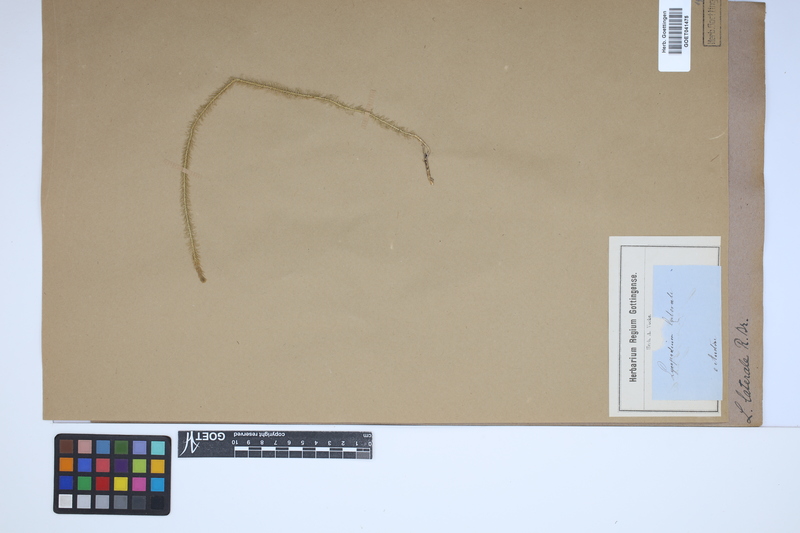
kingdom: Plantae
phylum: Tracheophyta
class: Lycopodiopsida
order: Lycopodiales
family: Lycopodiaceae
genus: Lateristachys
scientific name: Lateristachys lateralis
